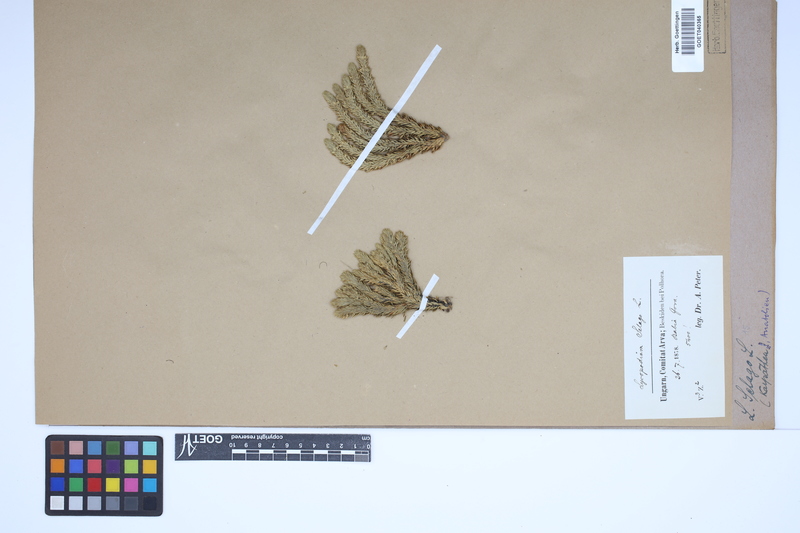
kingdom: Plantae
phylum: Tracheophyta
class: Lycopodiopsida
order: Lycopodiales
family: Lycopodiaceae
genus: Huperzia
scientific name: Huperzia selago
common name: Northern firmoss
